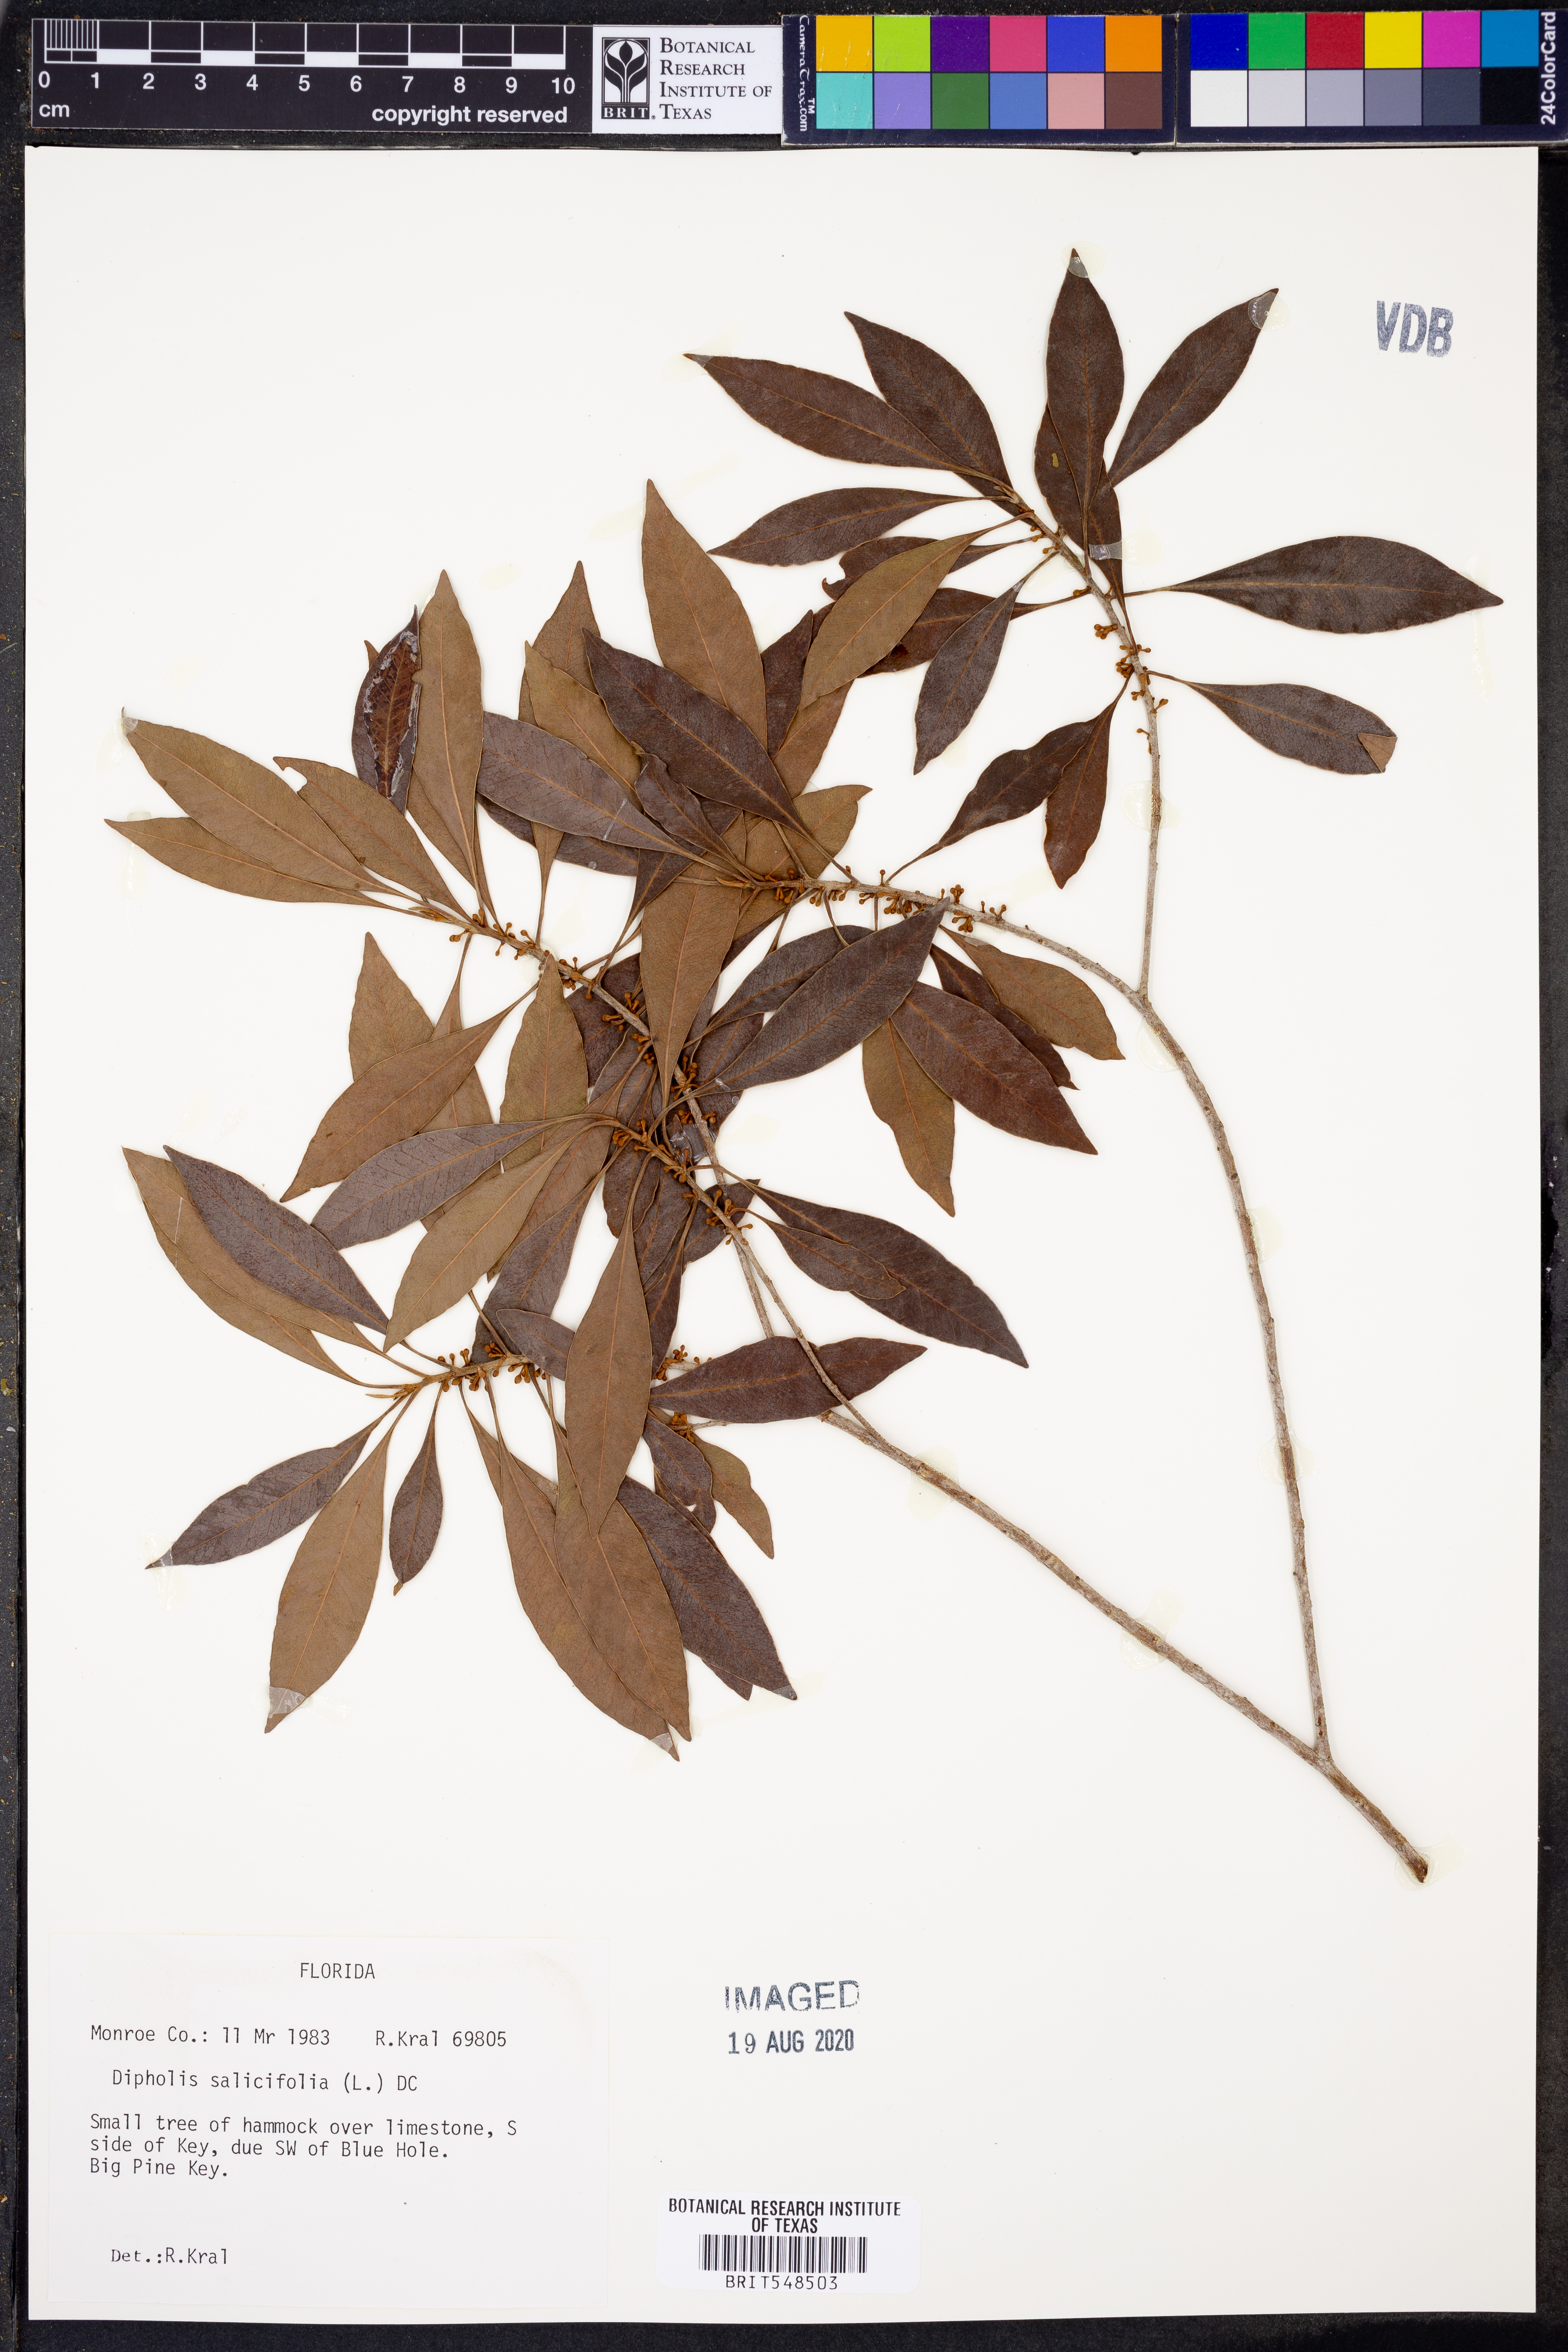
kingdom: Plantae
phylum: Tracheophyta
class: Magnoliopsida
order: Ericales
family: Sapotaceae
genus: Sideroxylon
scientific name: Sideroxylon salicifolium
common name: White bully
